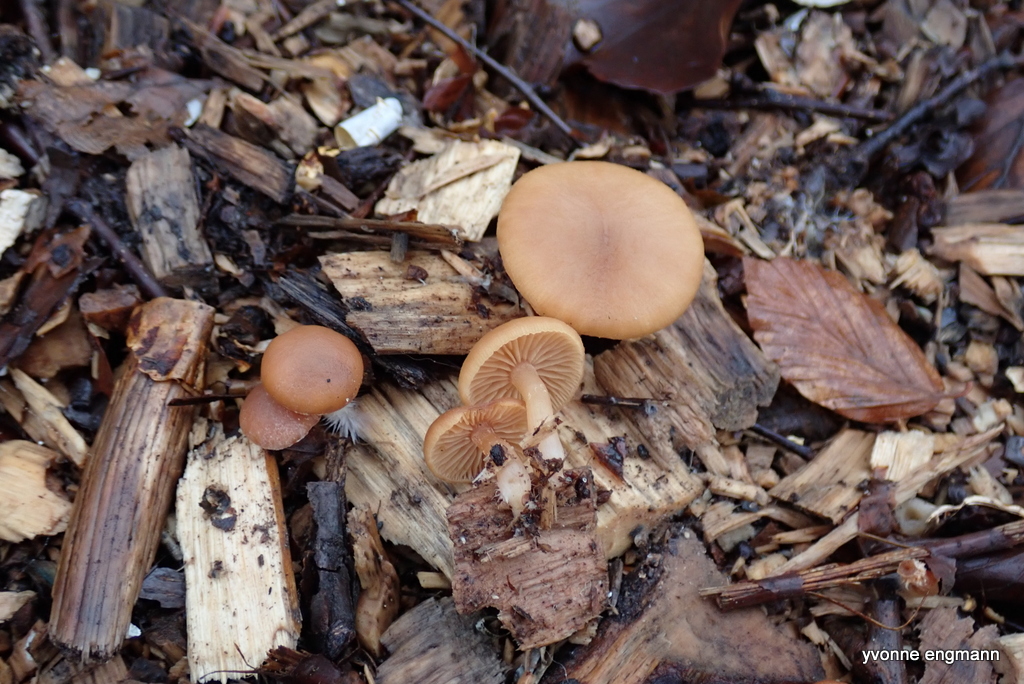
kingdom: Fungi
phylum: Basidiomycota
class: Agaricomycetes
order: Agaricales
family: Tubariaceae
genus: Tubaria
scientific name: Tubaria furfuracea
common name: kliddet fnughat
